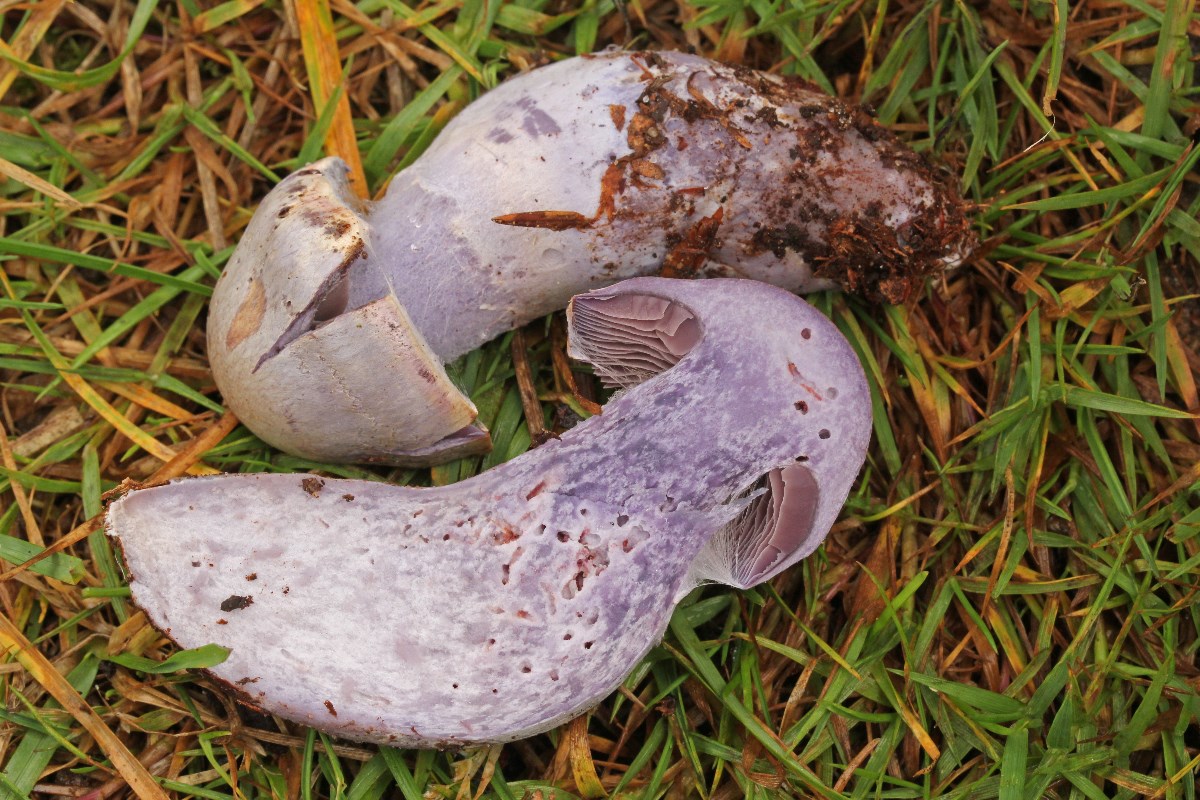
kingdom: Fungi
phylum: Basidiomycota
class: Agaricomycetes
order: Agaricales
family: Cortinariaceae
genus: Cortinarius
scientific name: Cortinarius alboviolaceus
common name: lysviolet slørhat
